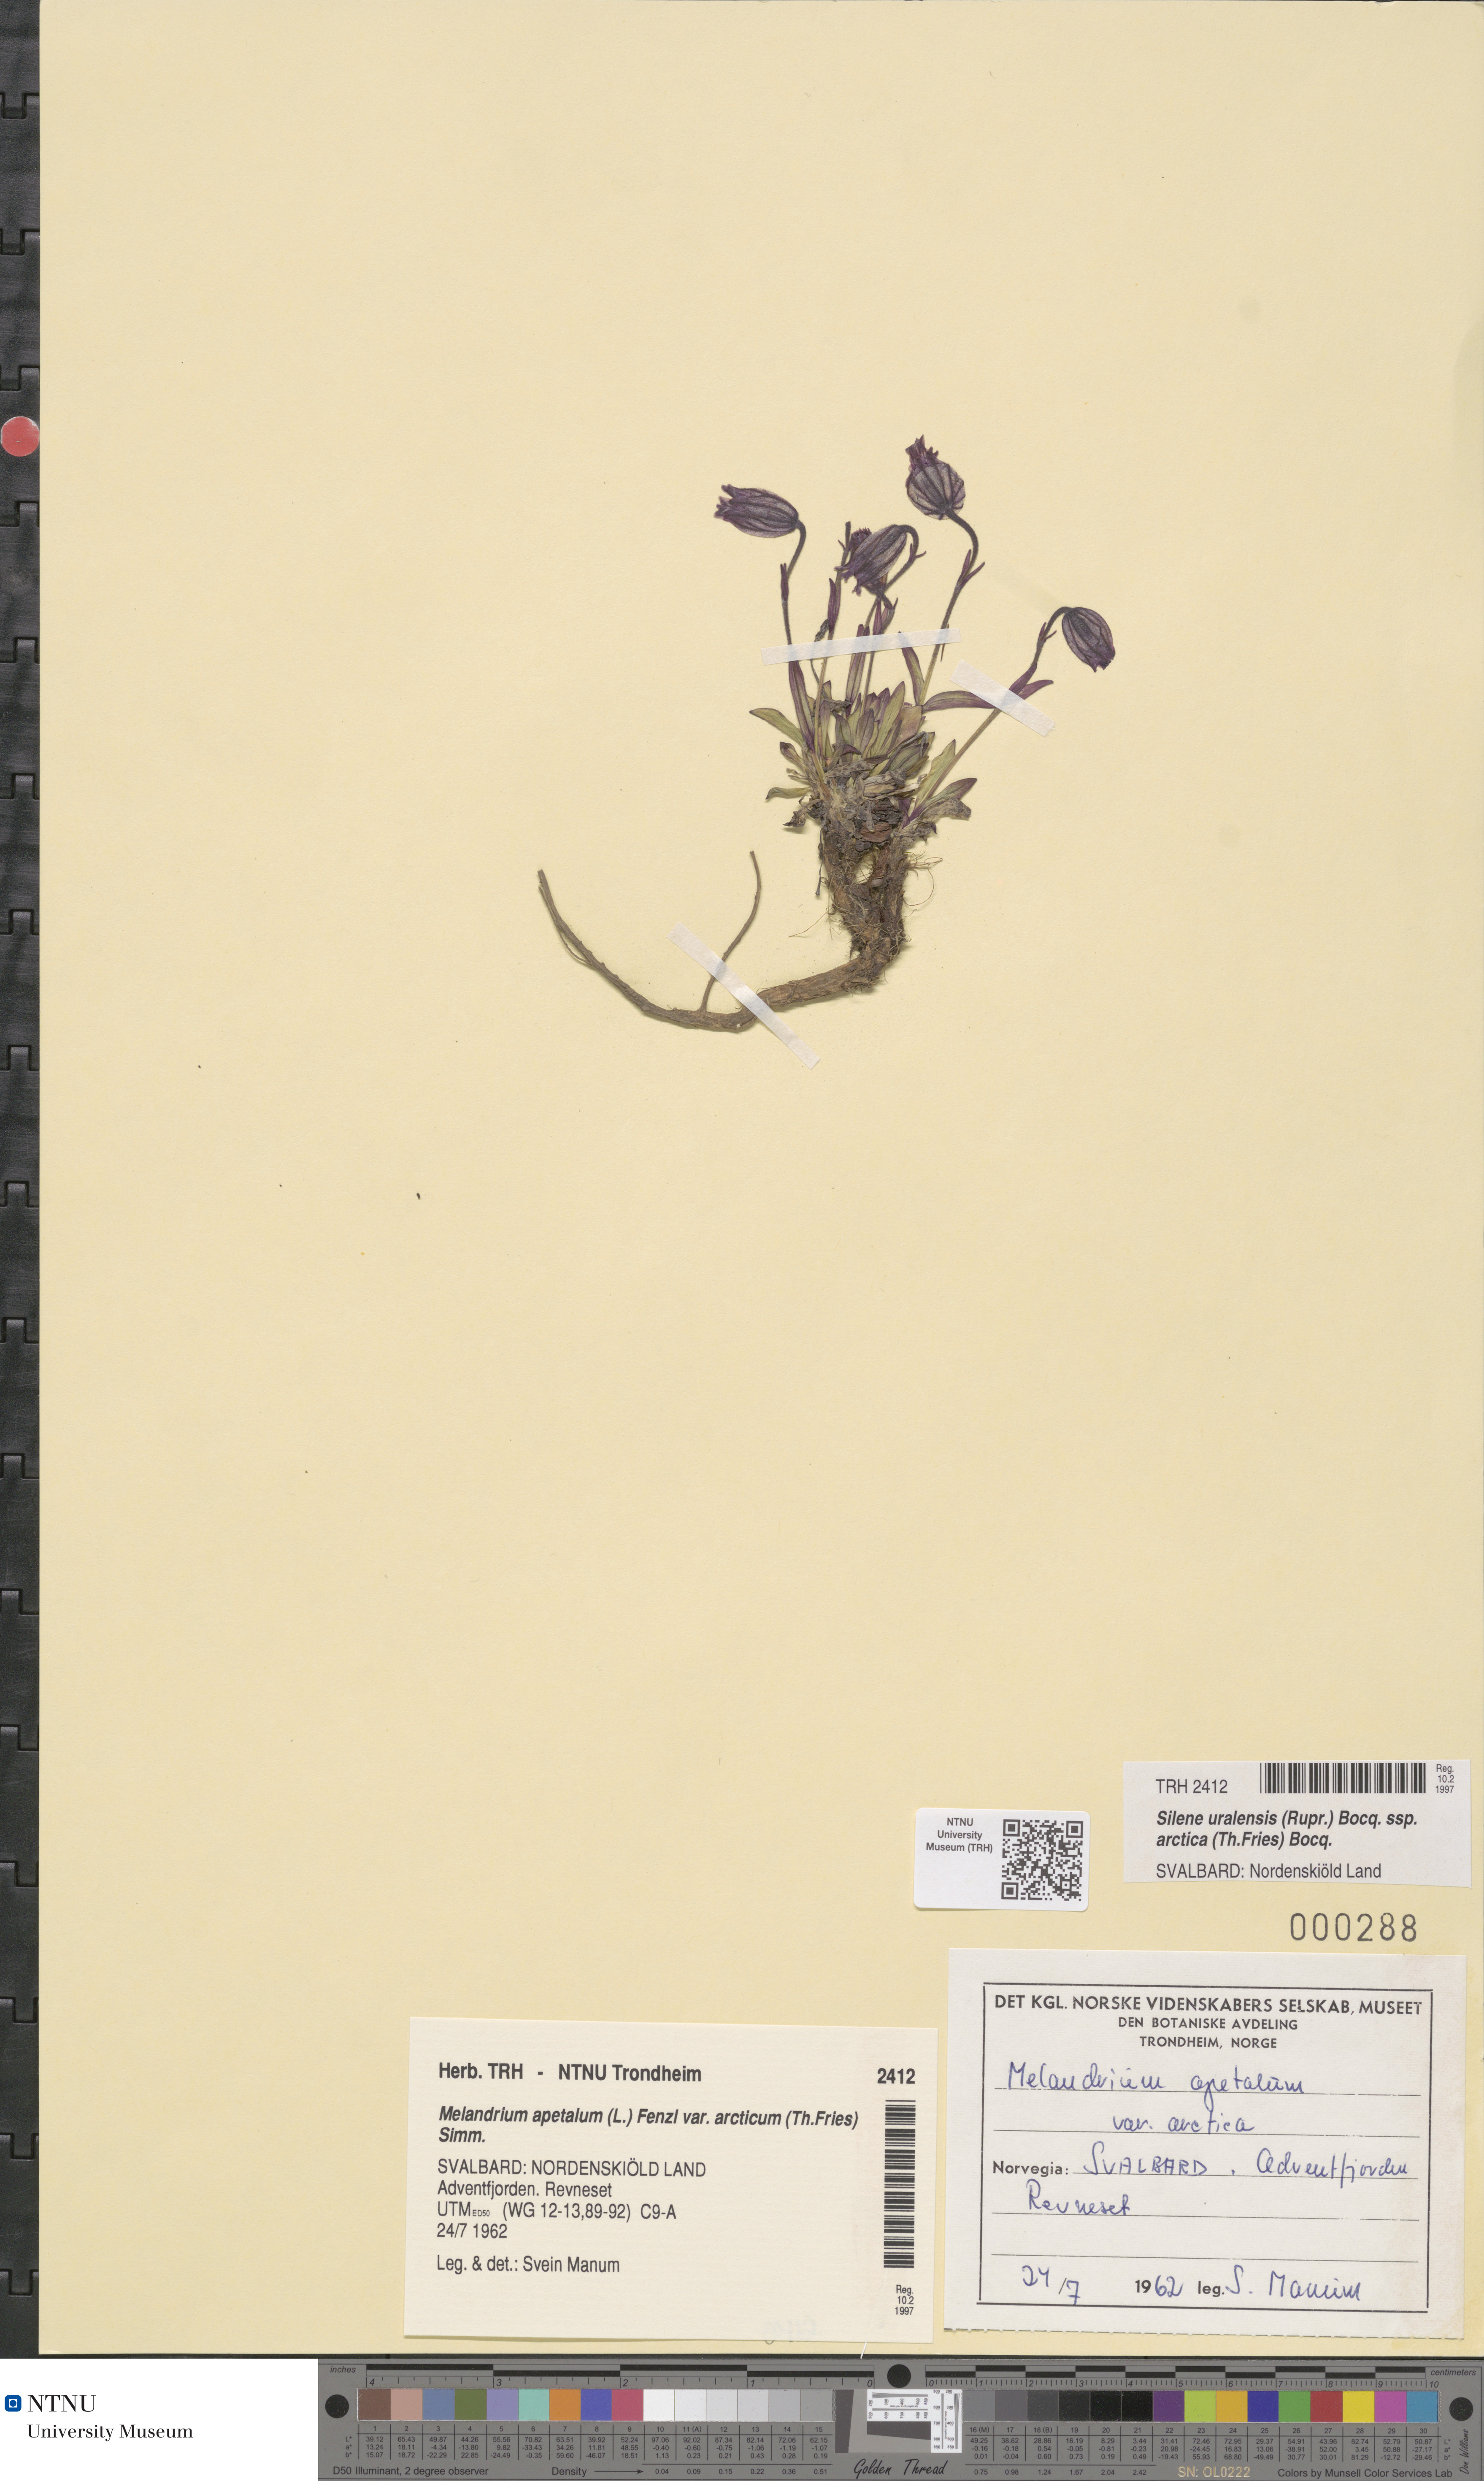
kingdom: Plantae
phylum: Tracheophyta
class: Magnoliopsida
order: Caryophyllales
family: Caryophyllaceae
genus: Silene
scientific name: Silene uralensis
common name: Nodding campion
